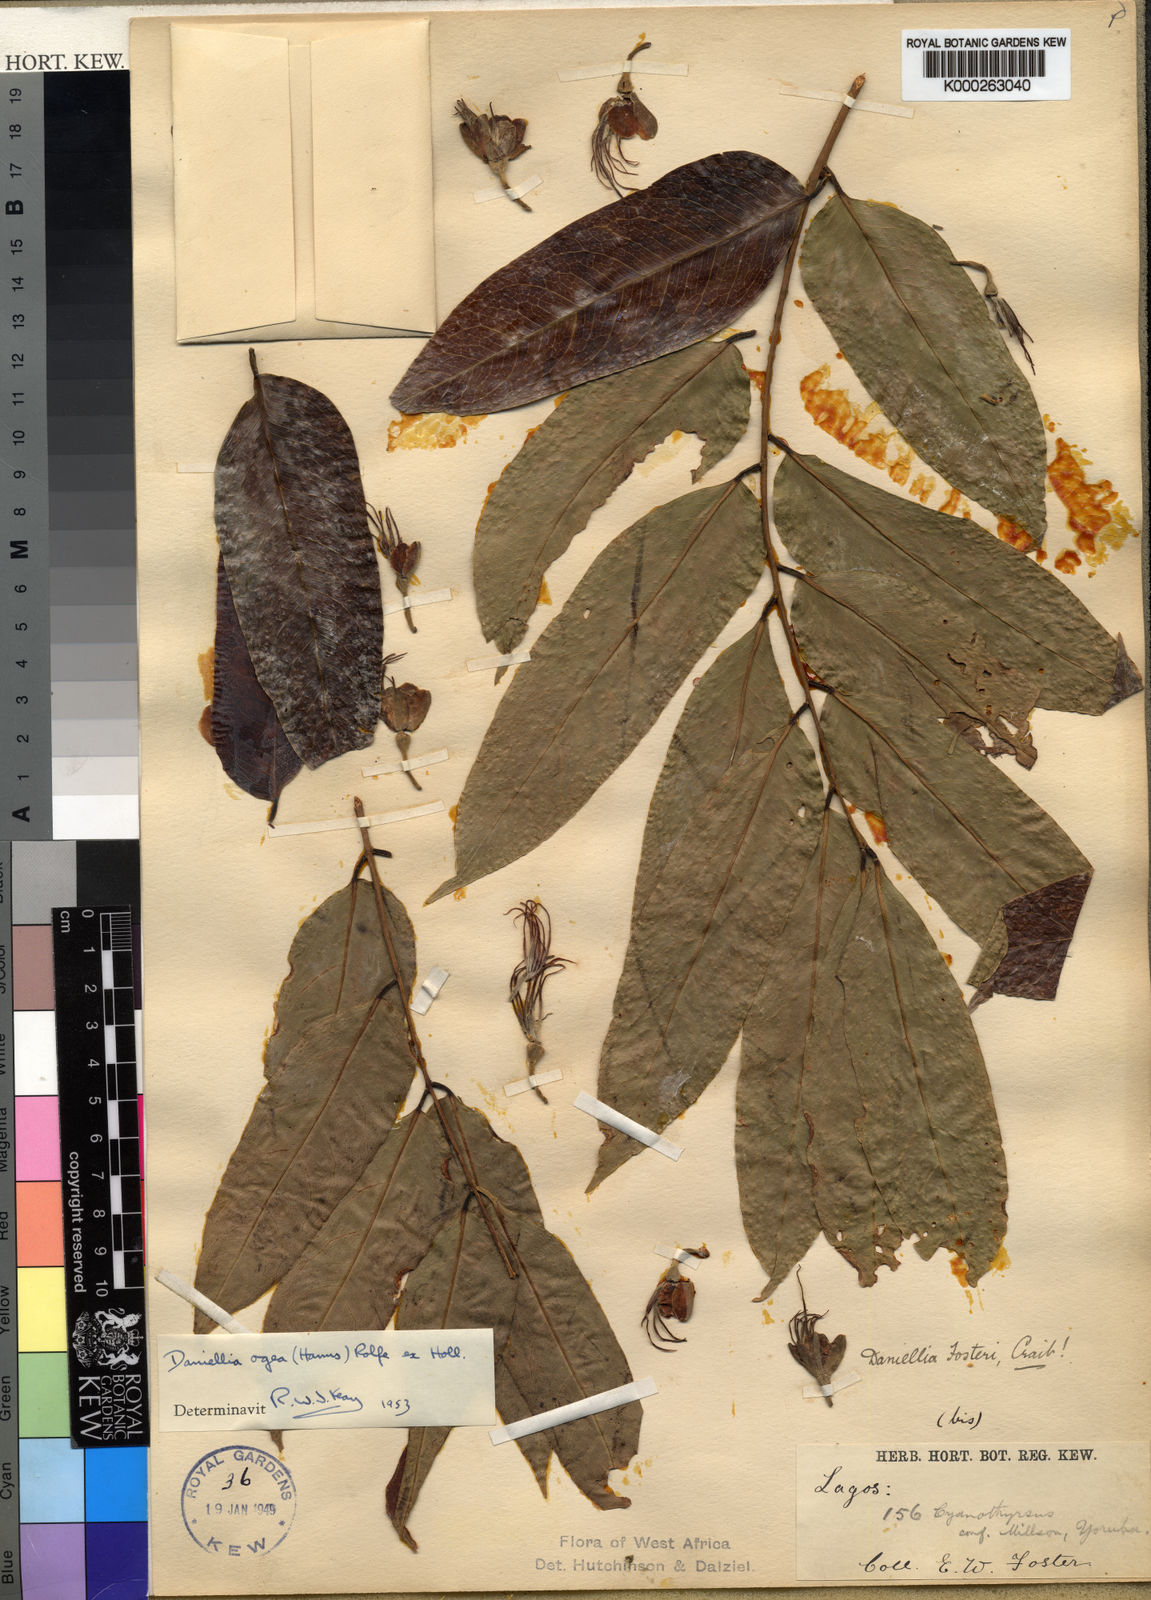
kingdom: Plantae
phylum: Tracheophyta
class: Magnoliopsida
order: Fabales
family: Fabaceae
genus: Daniellia
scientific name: Daniellia
